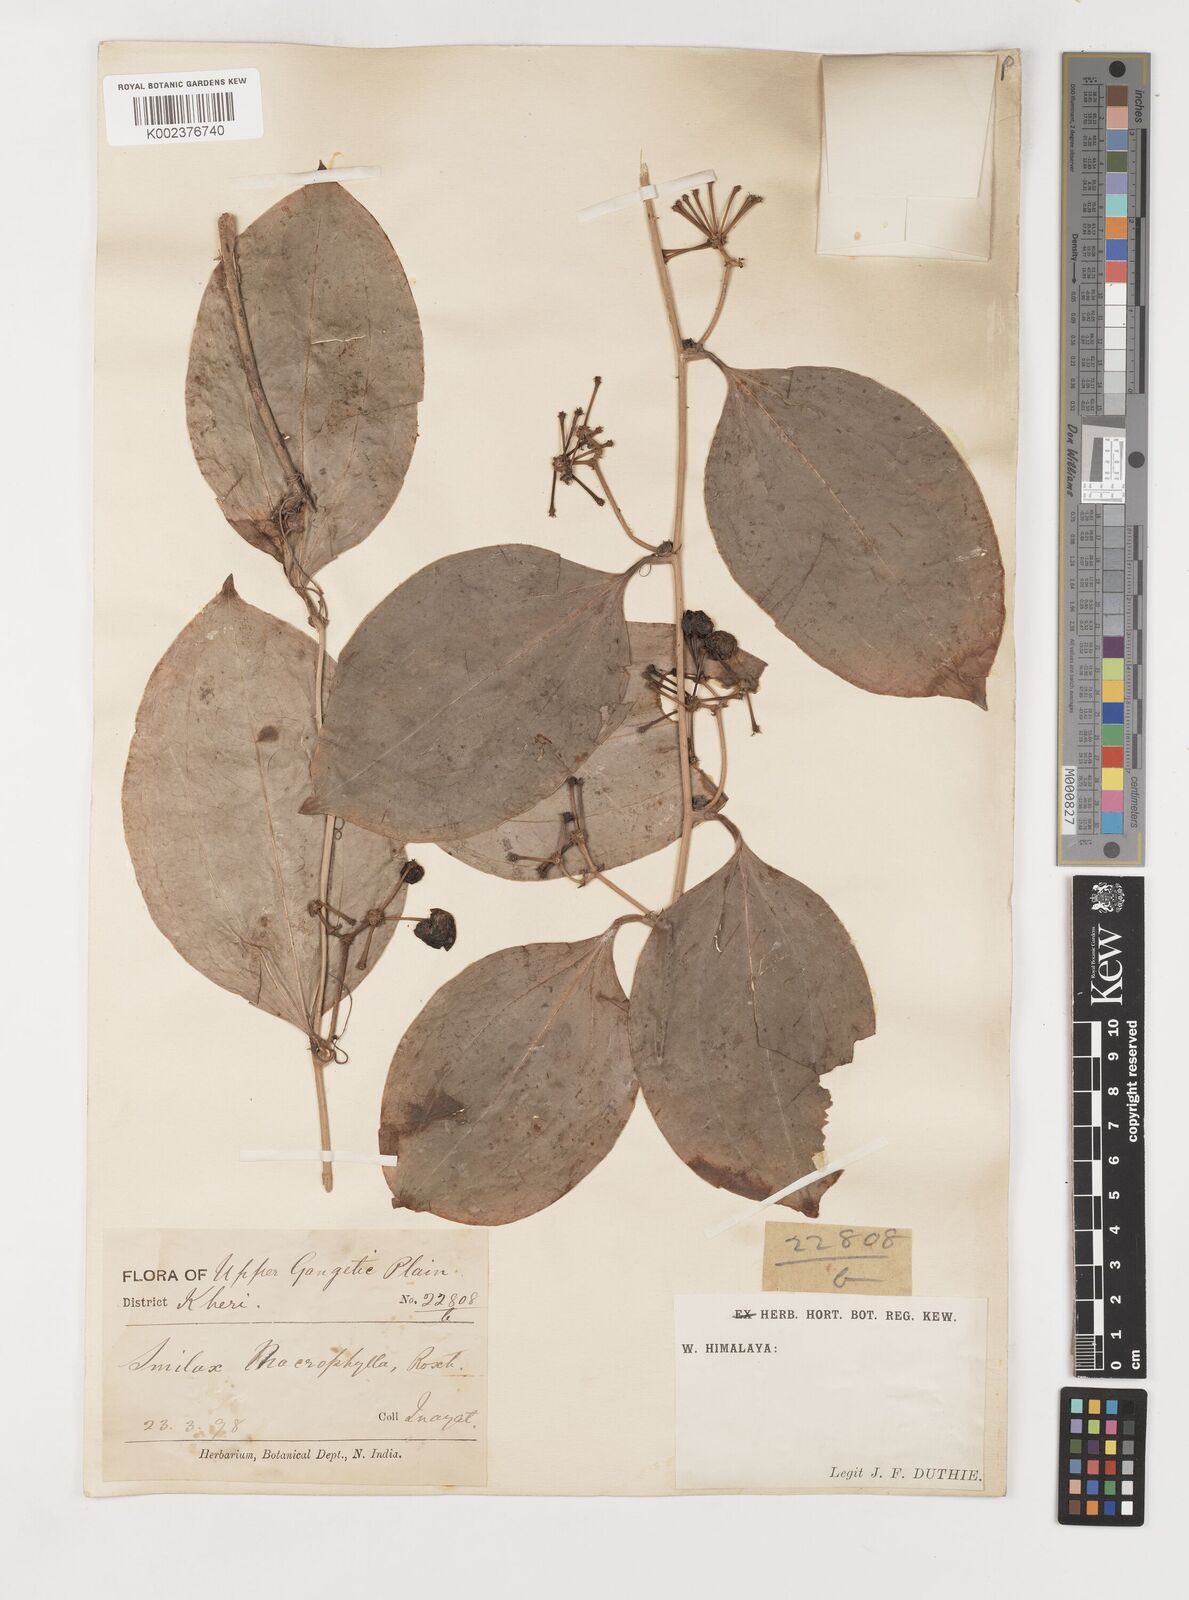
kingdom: Plantae
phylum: Tracheophyta
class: Liliopsida
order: Liliales
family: Smilacaceae
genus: Smilax
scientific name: Smilax ovalifolia
